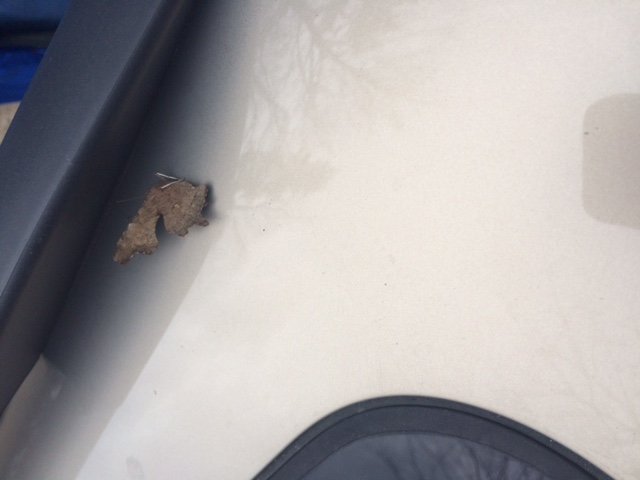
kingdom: Animalia
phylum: Arthropoda
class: Insecta
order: Lepidoptera
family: Nymphalidae
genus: Polygonia
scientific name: Polygonia faunus
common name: Green Comma
